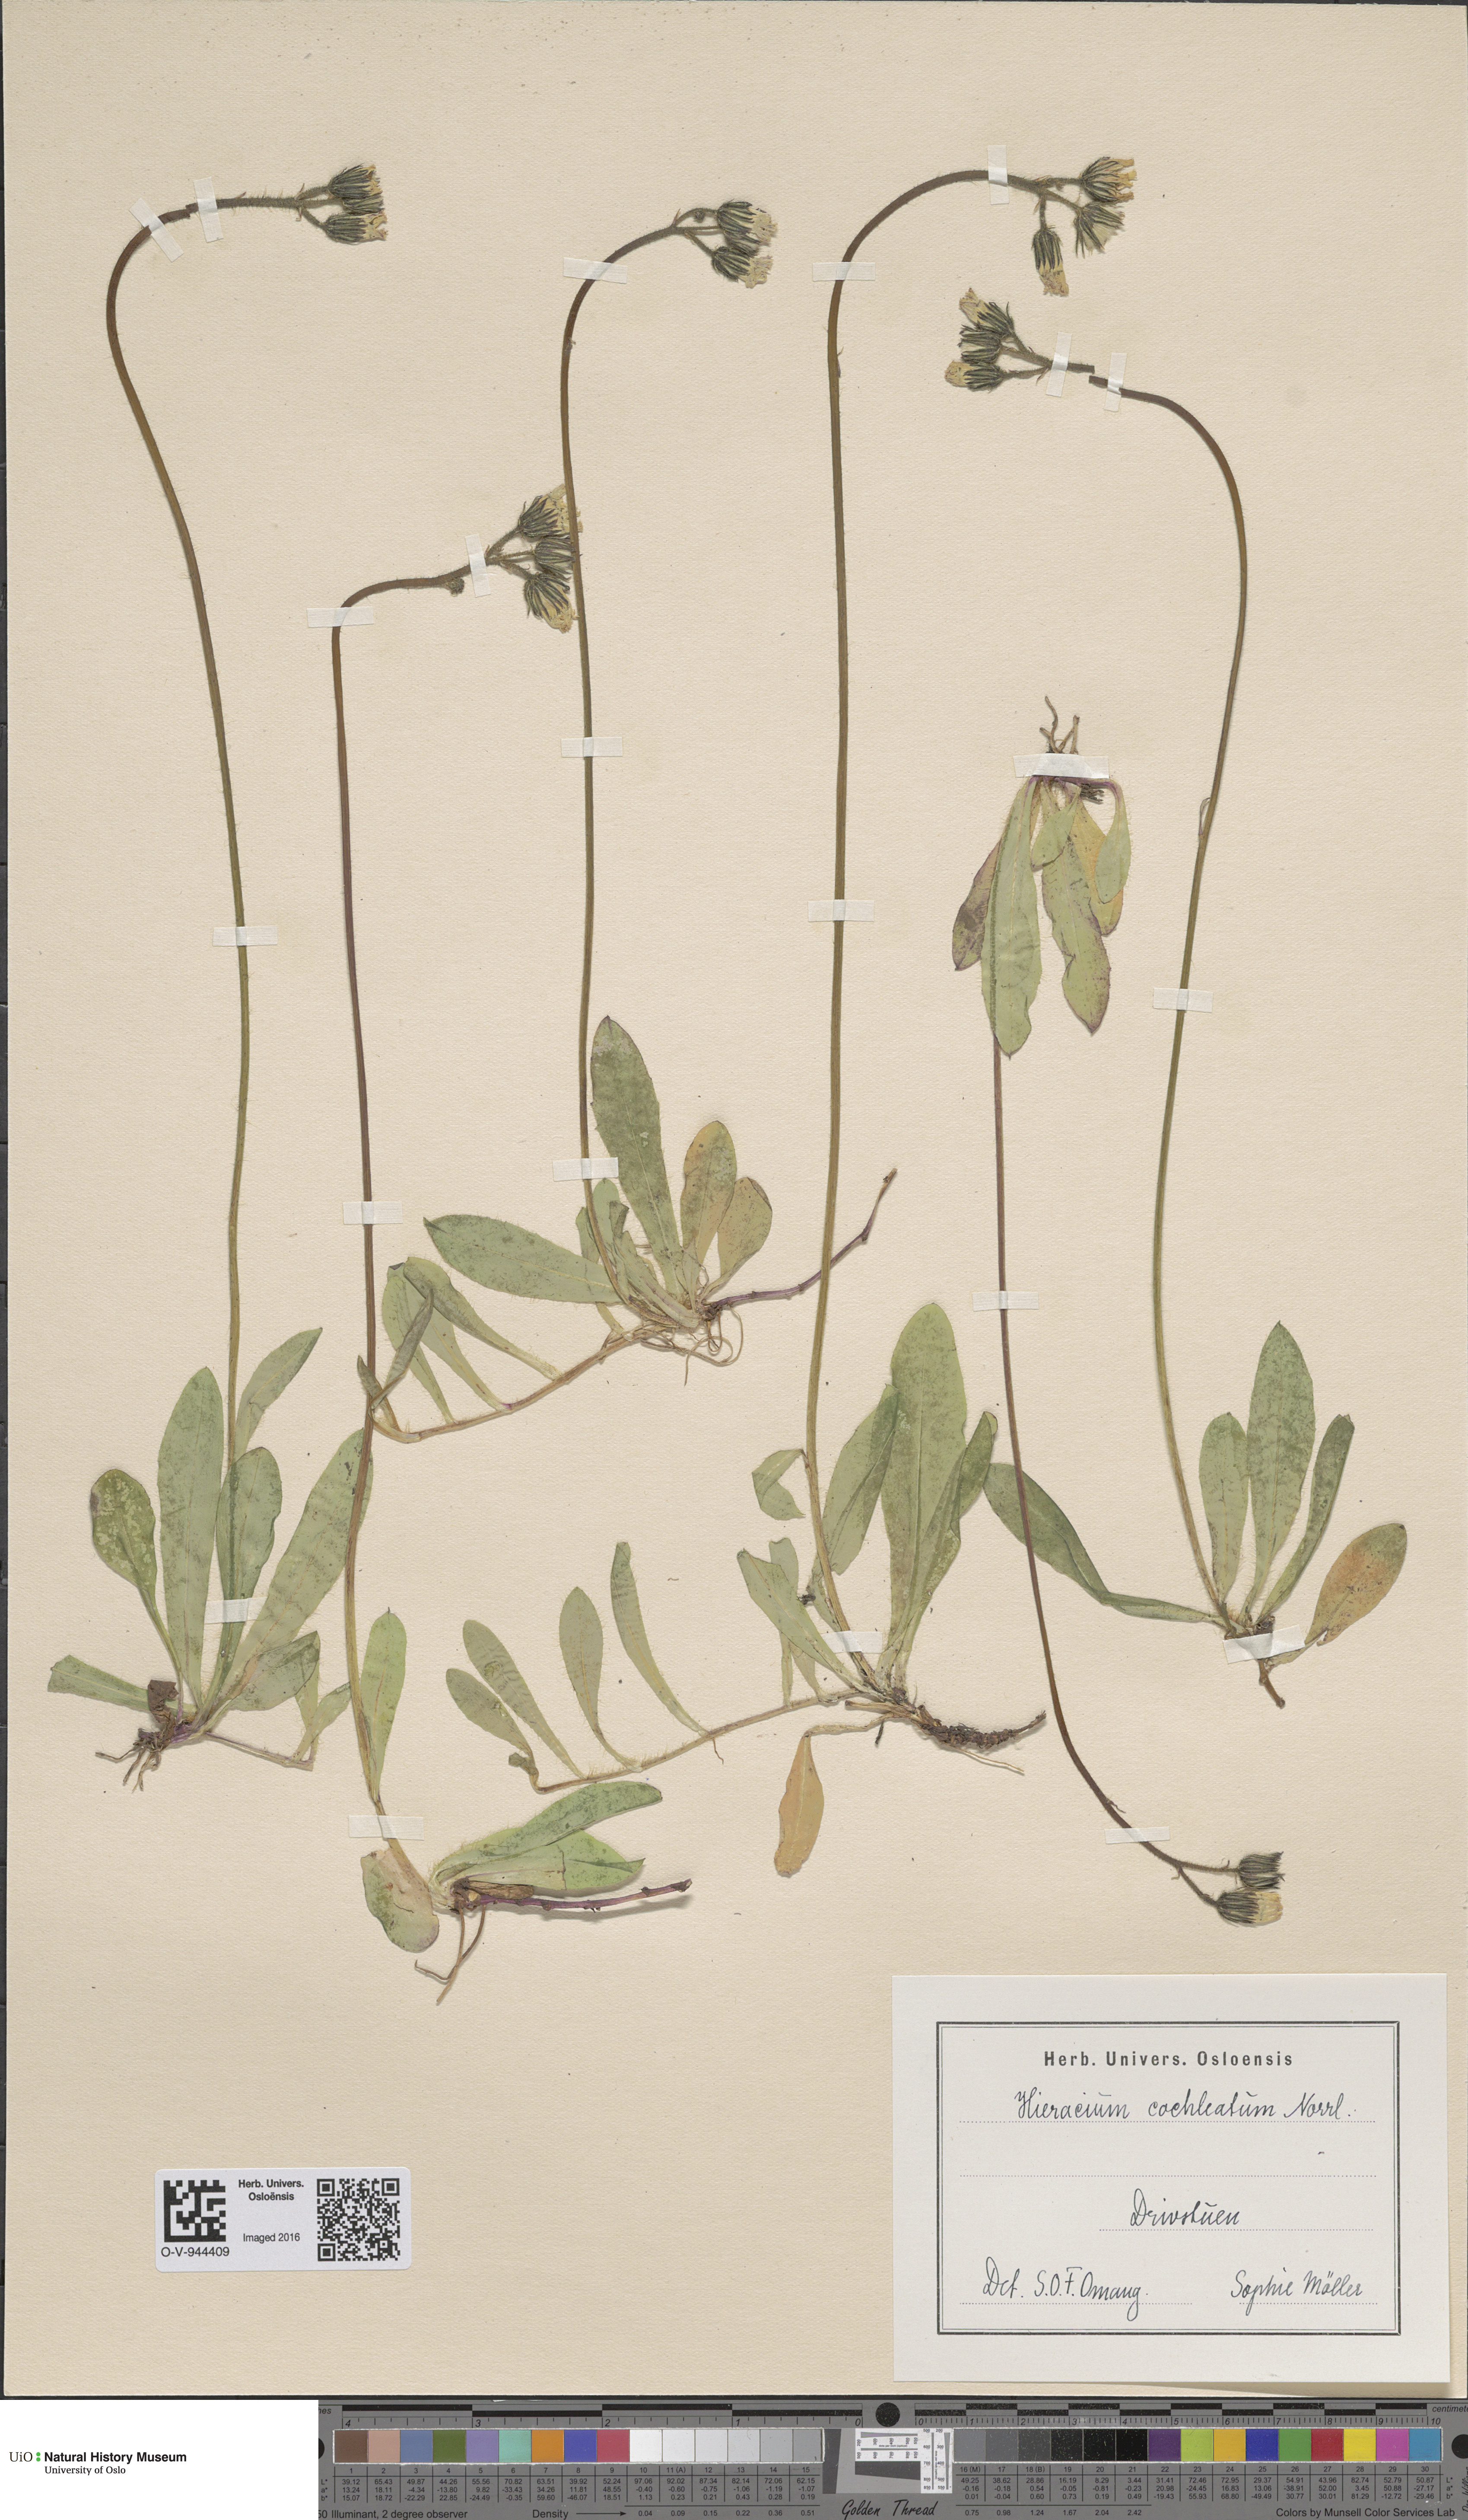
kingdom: Plantae
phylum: Tracheophyta
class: Magnoliopsida
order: Asterales
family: Asteraceae
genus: Pilosella
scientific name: Pilosella floribunda
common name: Glaucous hawkweed
